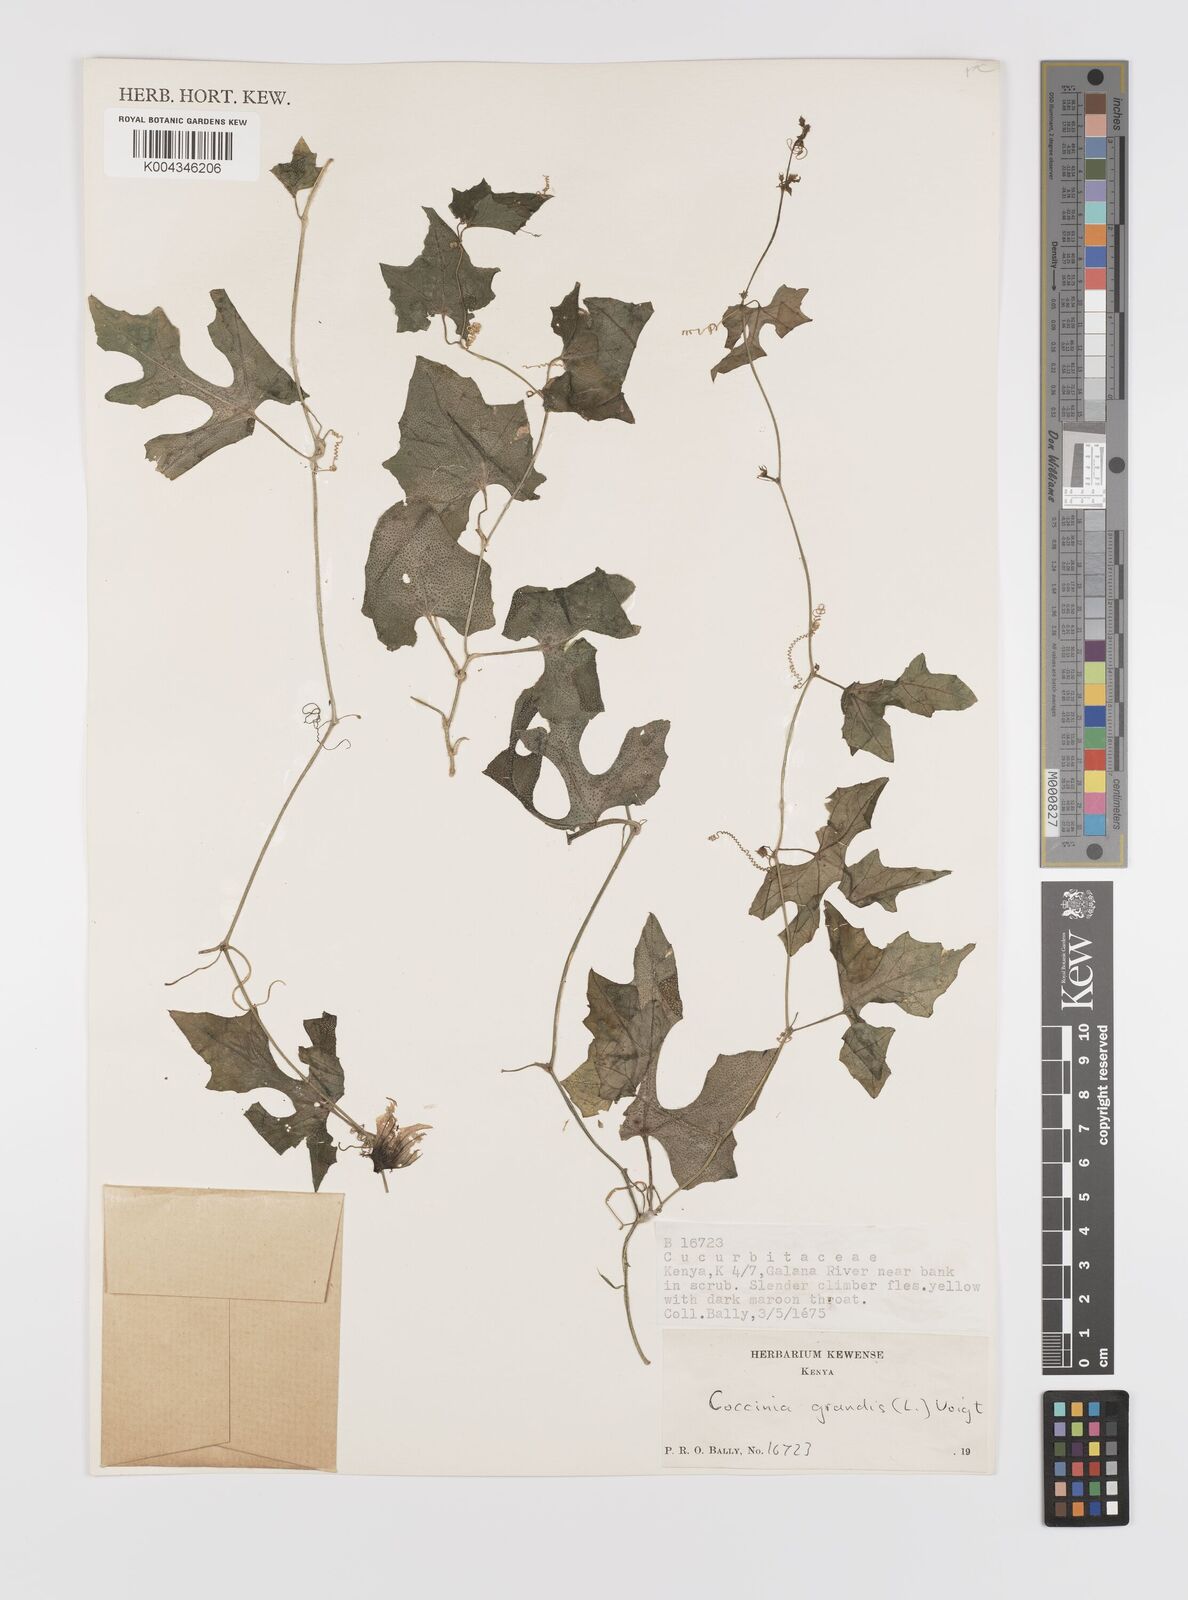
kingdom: Plantae
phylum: Tracheophyta
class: Magnoliopsida
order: Cucurbitales
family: Cucurbitaceae
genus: Coccinia
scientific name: Coccinia grandis
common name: Ivy gourd
